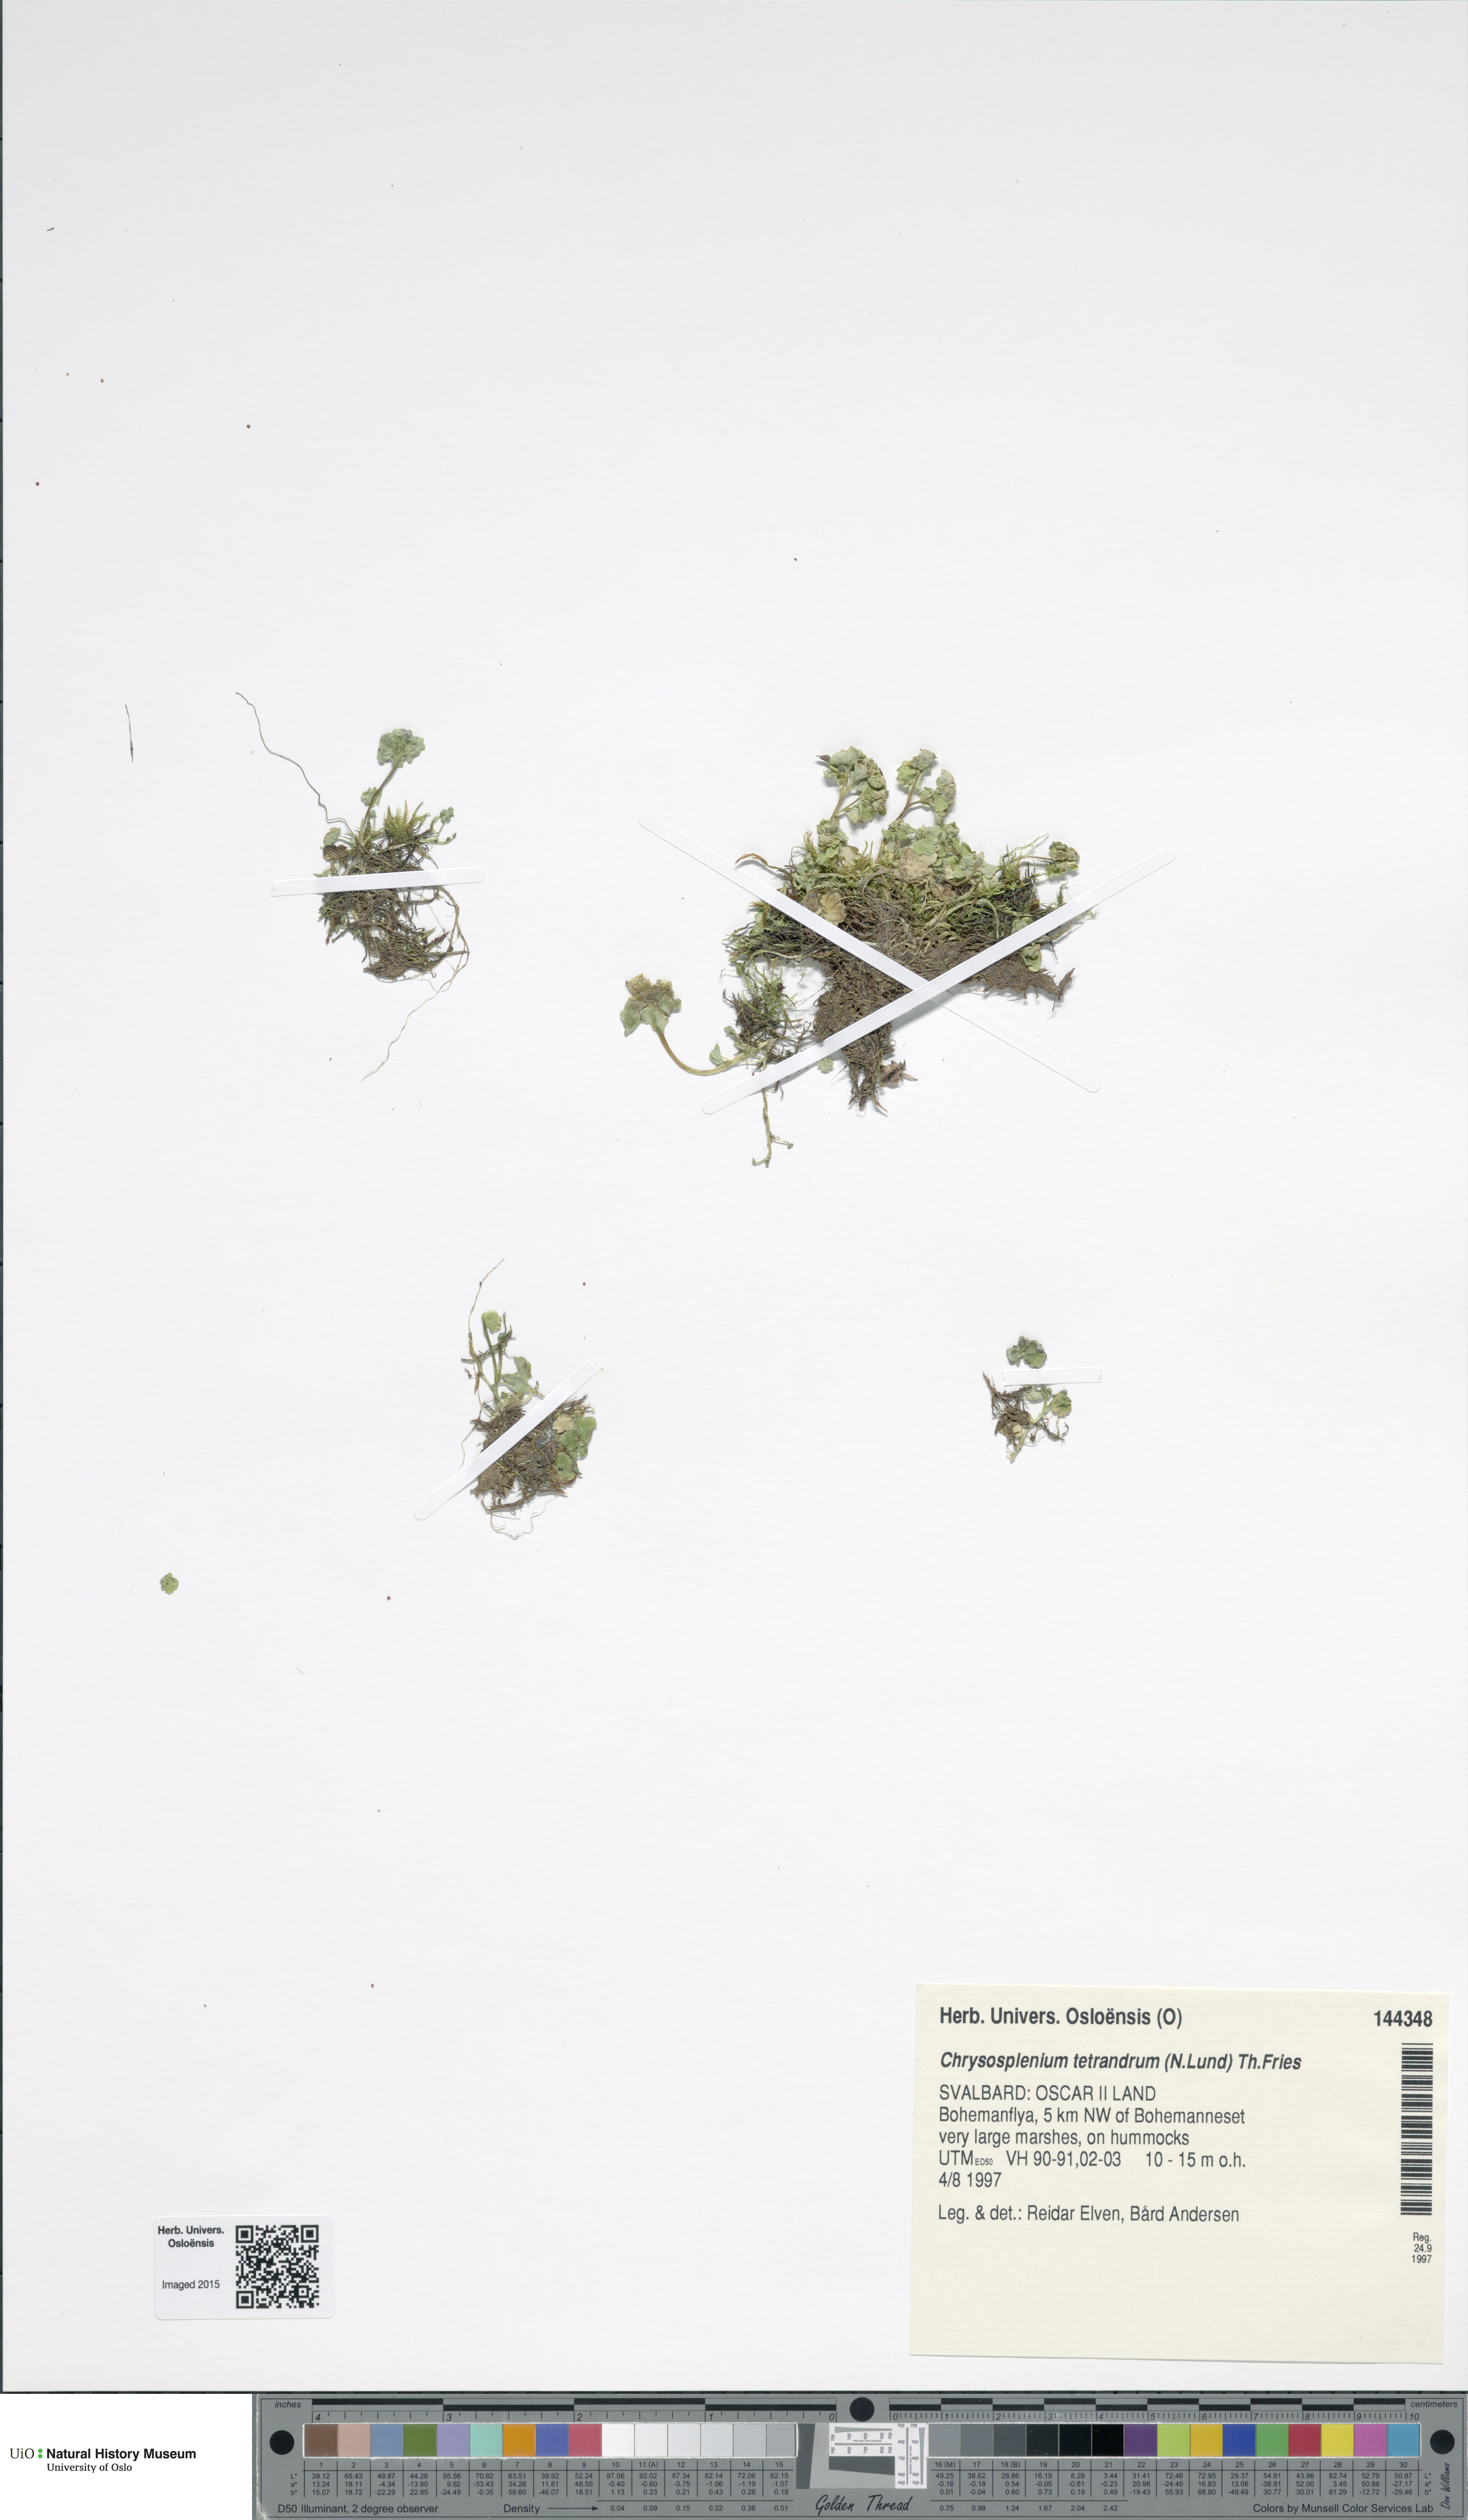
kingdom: Plantae
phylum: Tracheophyta
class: Magnoliopsida
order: Saxifragales
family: Saxifragaceae
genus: Chrysosplenium
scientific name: Chrysosplenium tetrandrum
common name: Green saxifrage
